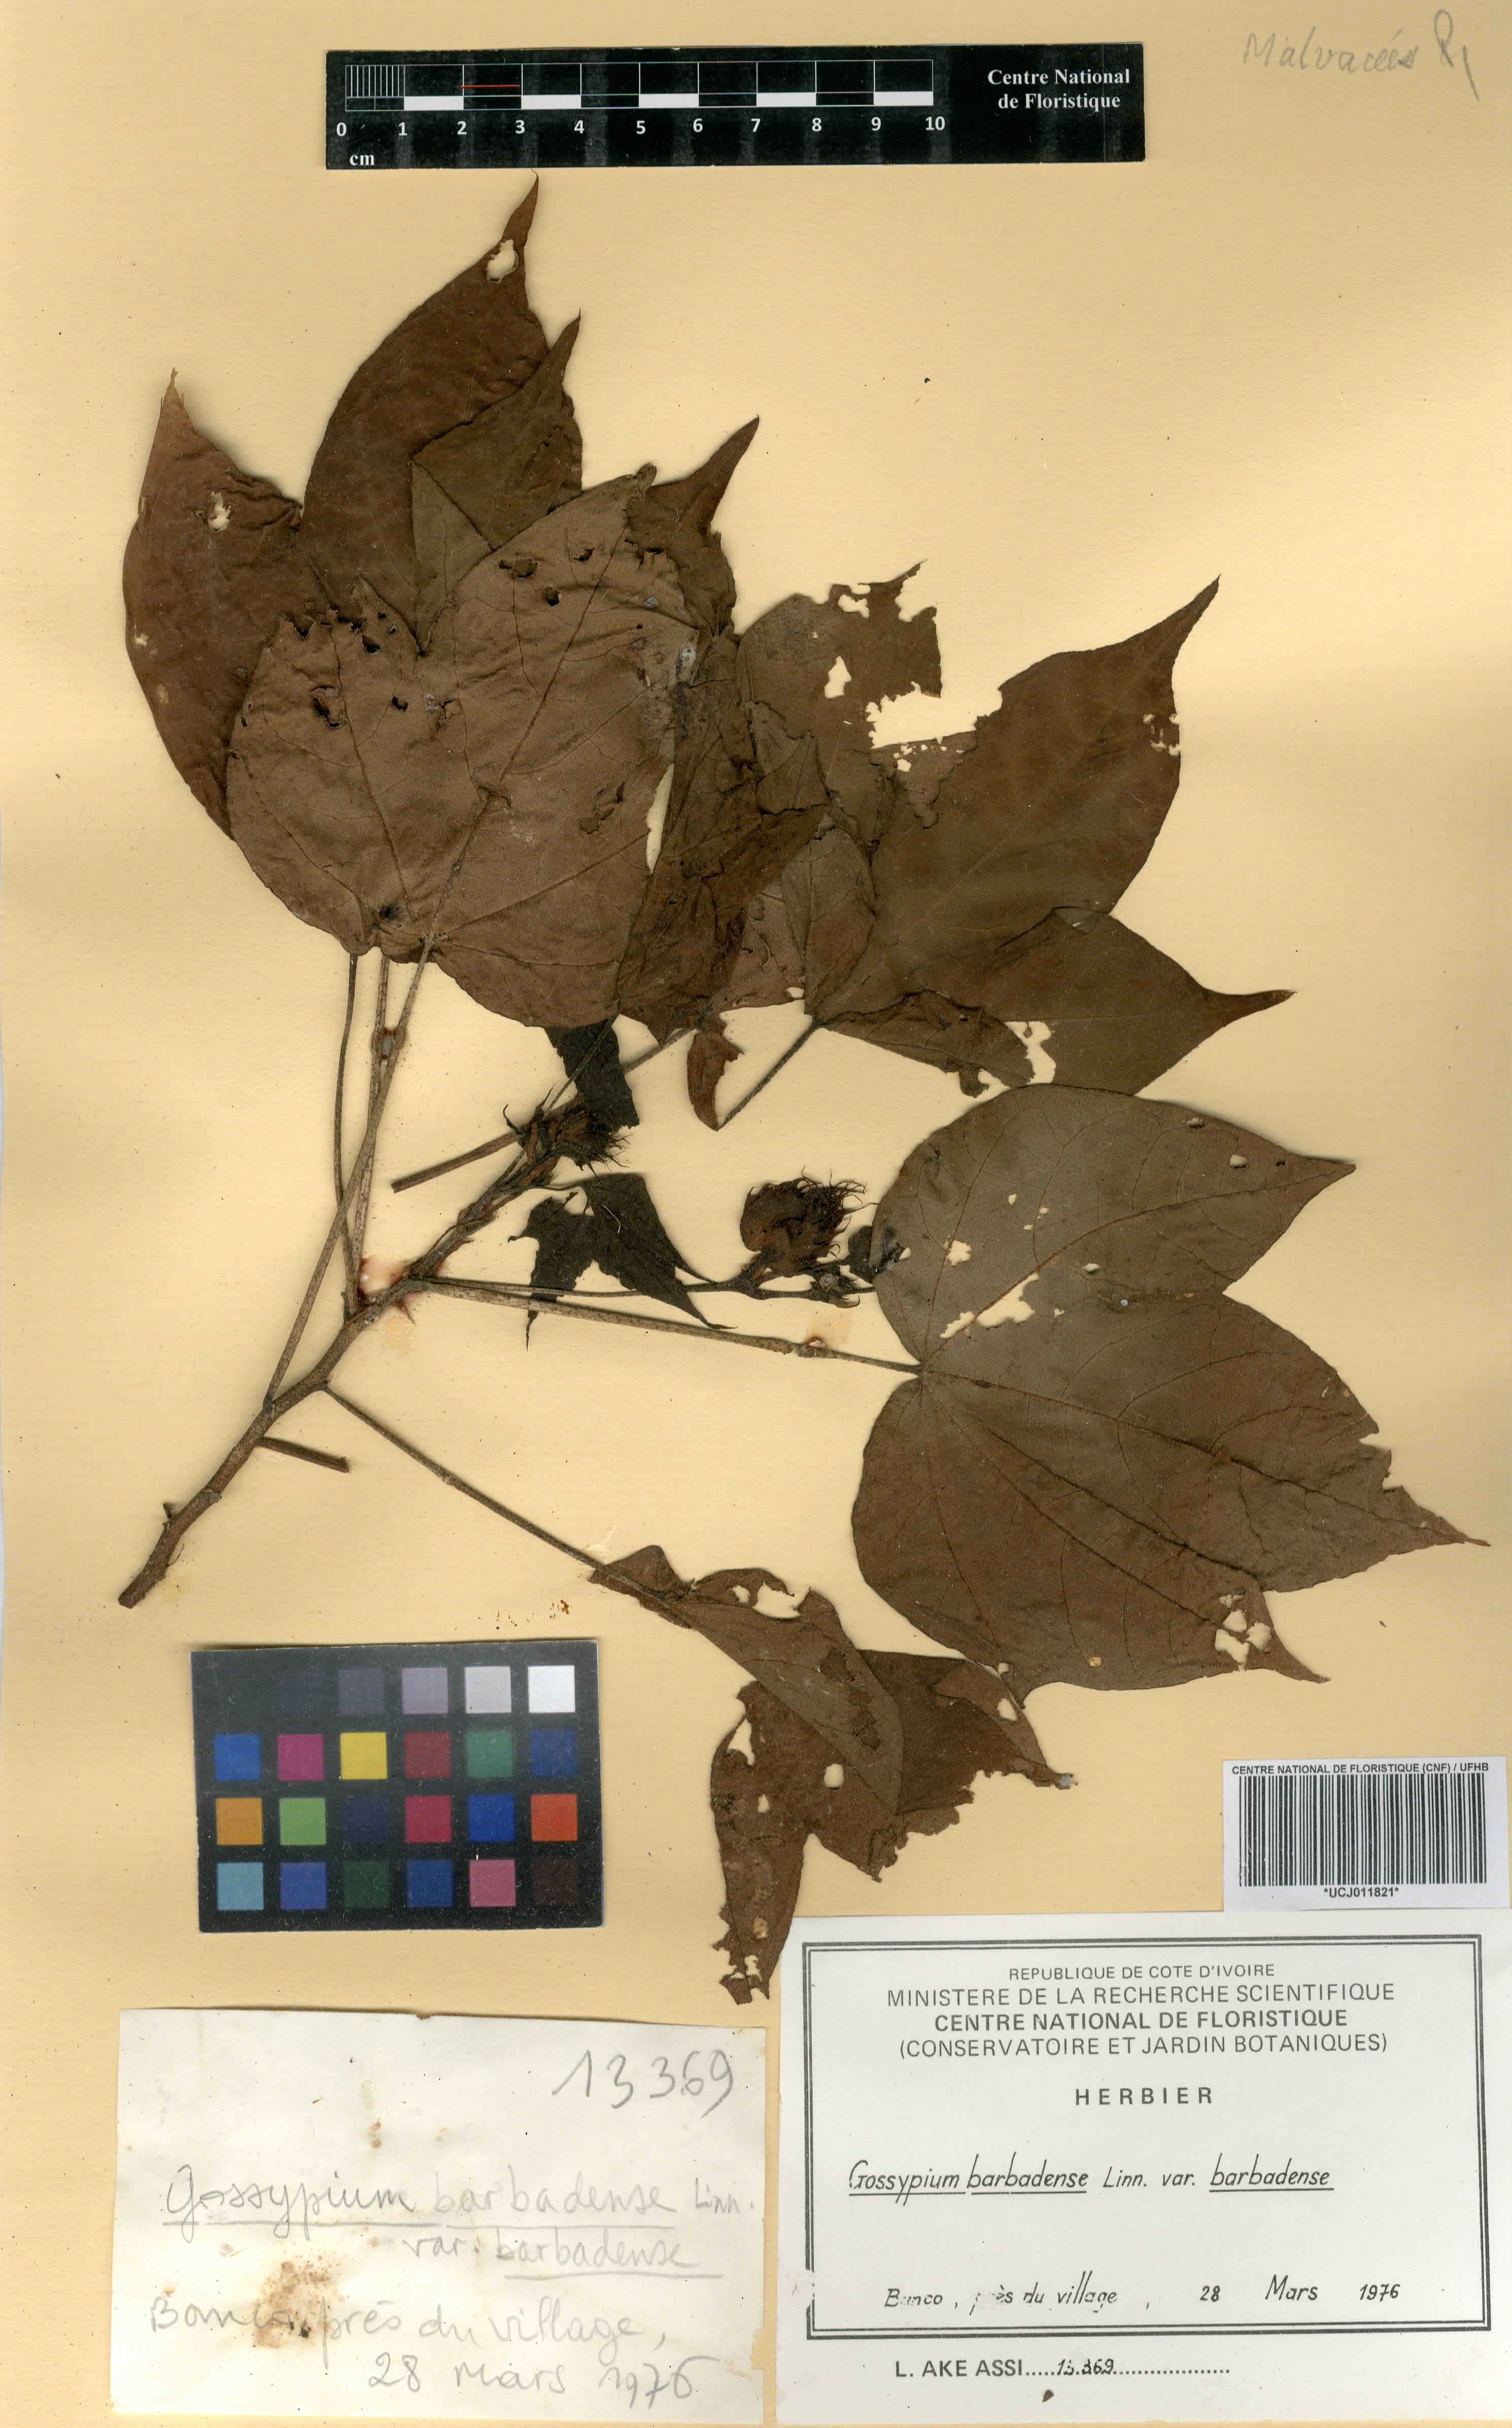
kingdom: Plantae
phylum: Tracheophyta
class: Magnoliopsida
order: Malvales
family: Malvaceae
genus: Gossypium
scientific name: Gossypium barbadense
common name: Creole cotton
